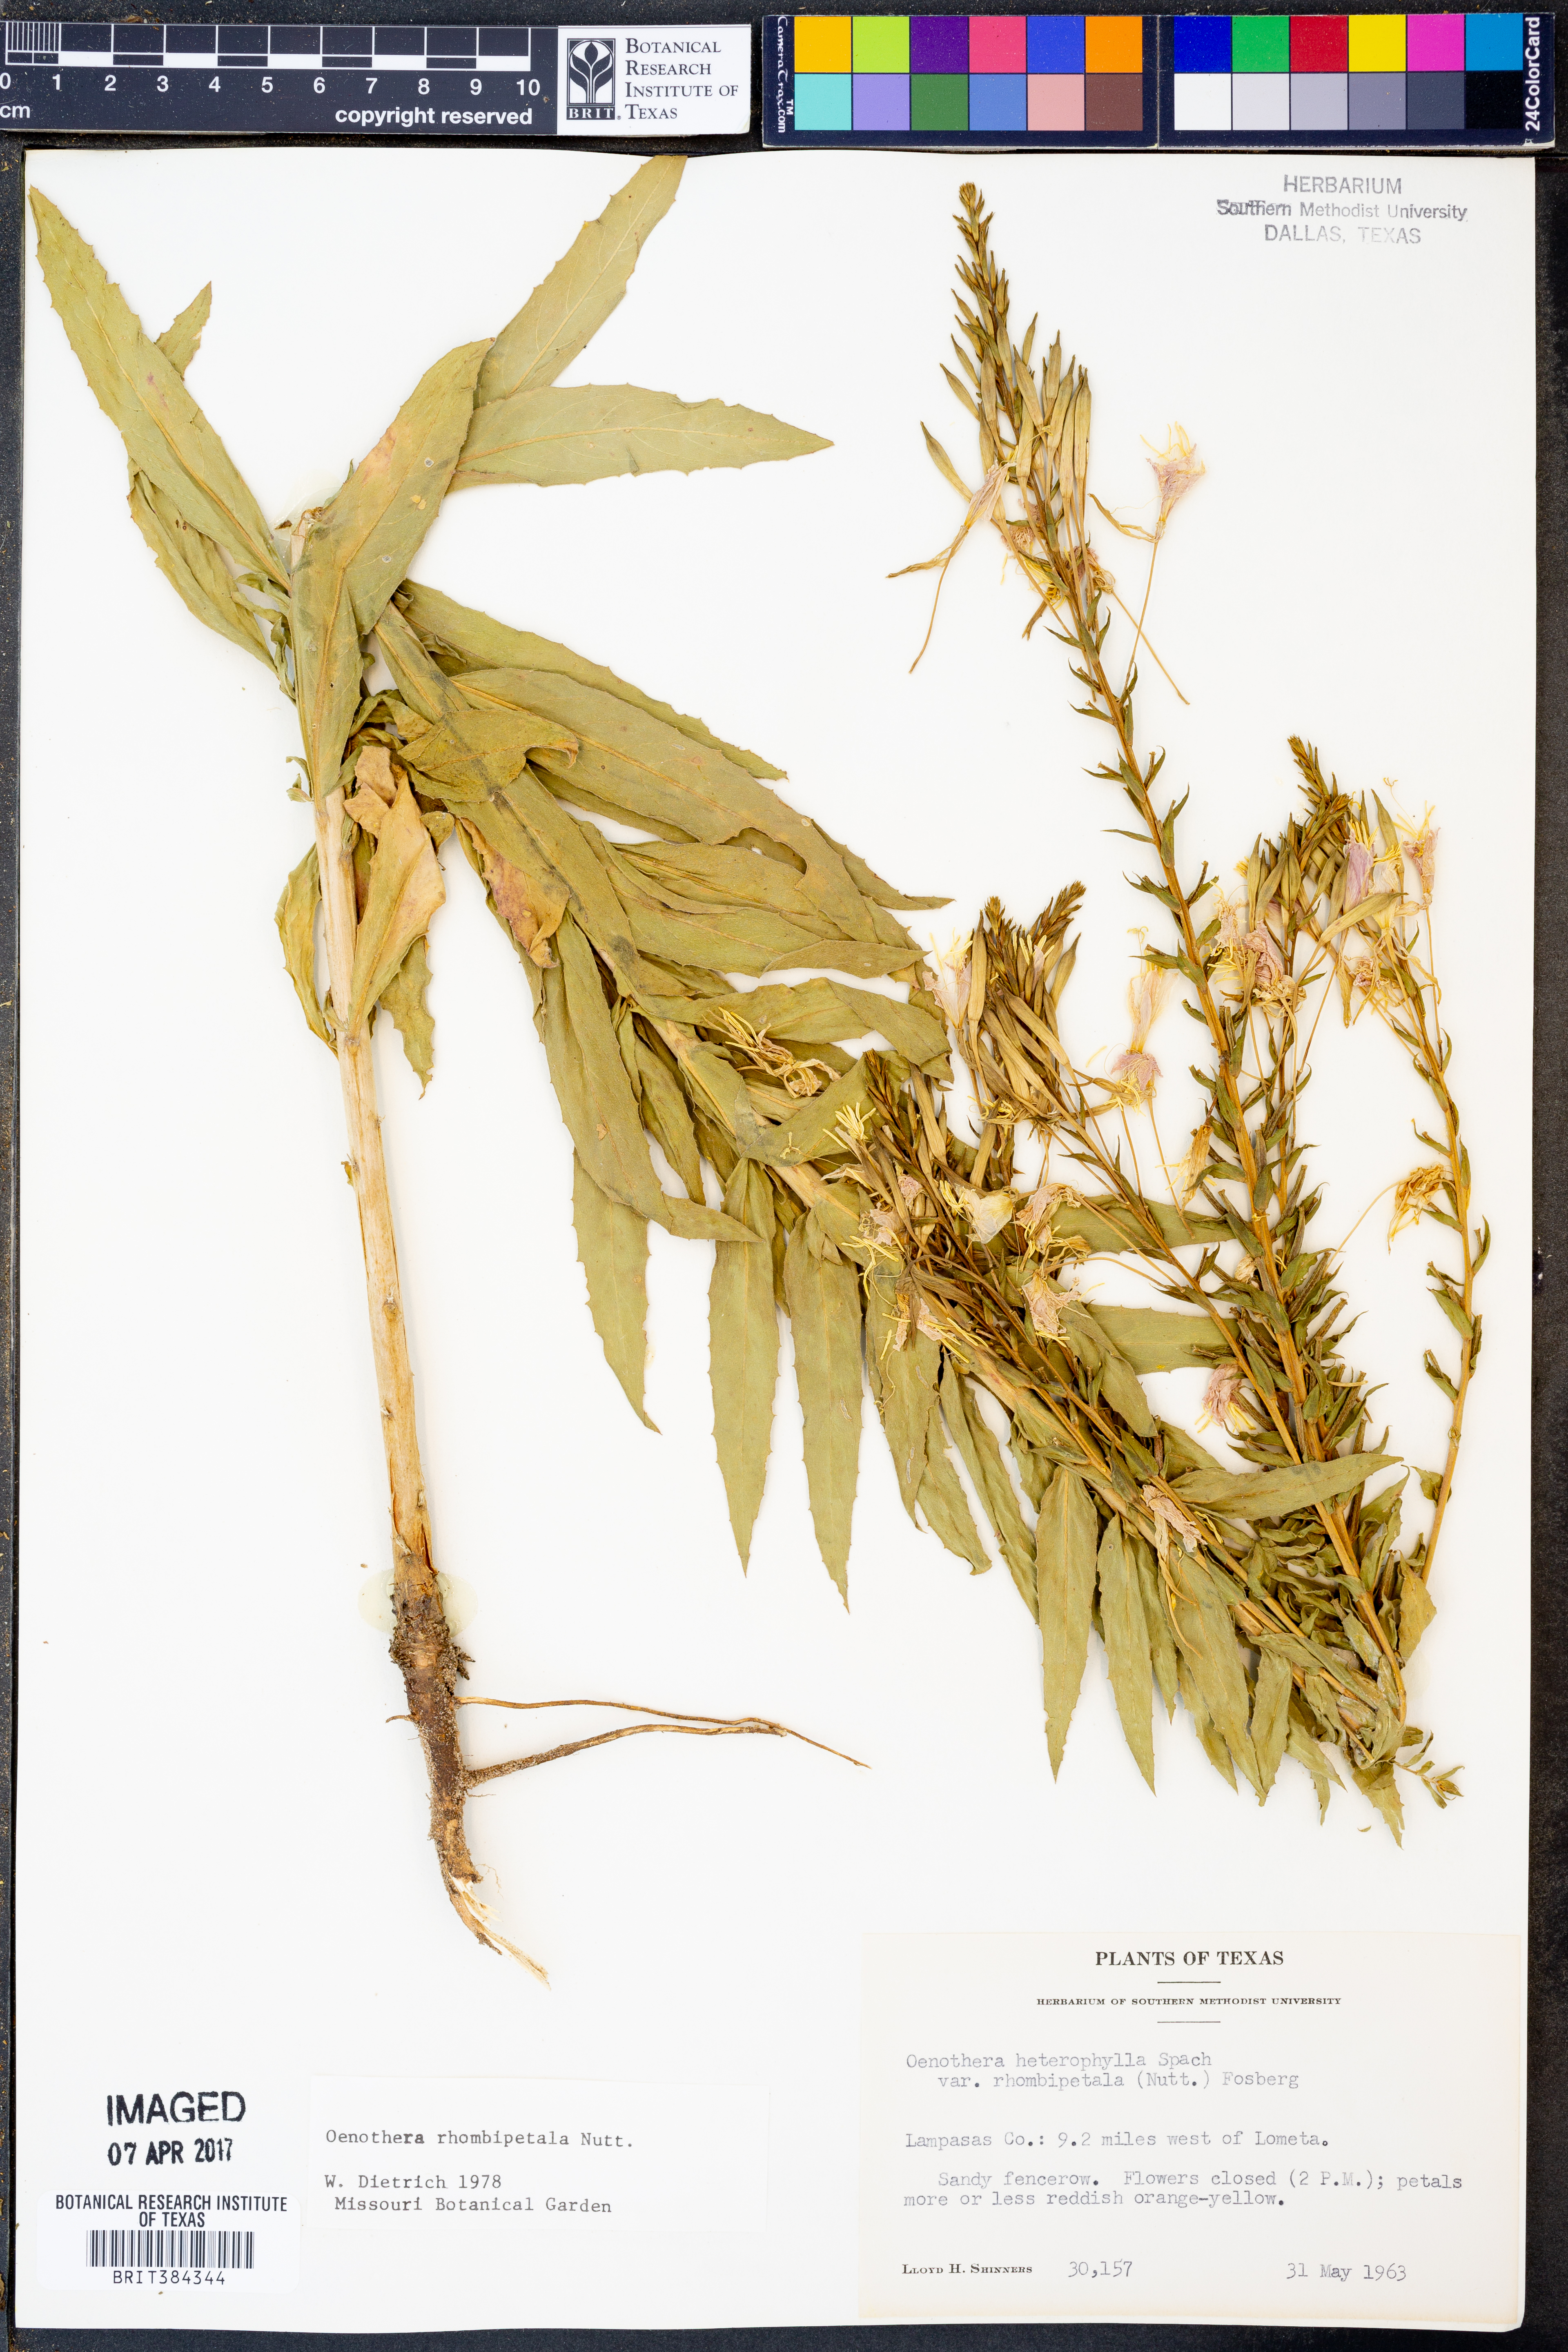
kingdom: Plantae
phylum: Tracheophyta
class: Magnoliopsida
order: Myrtales
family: Onagraceae
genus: Oenothera
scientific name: Oenothera rhombipetala
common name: Four-points evening-primrose
